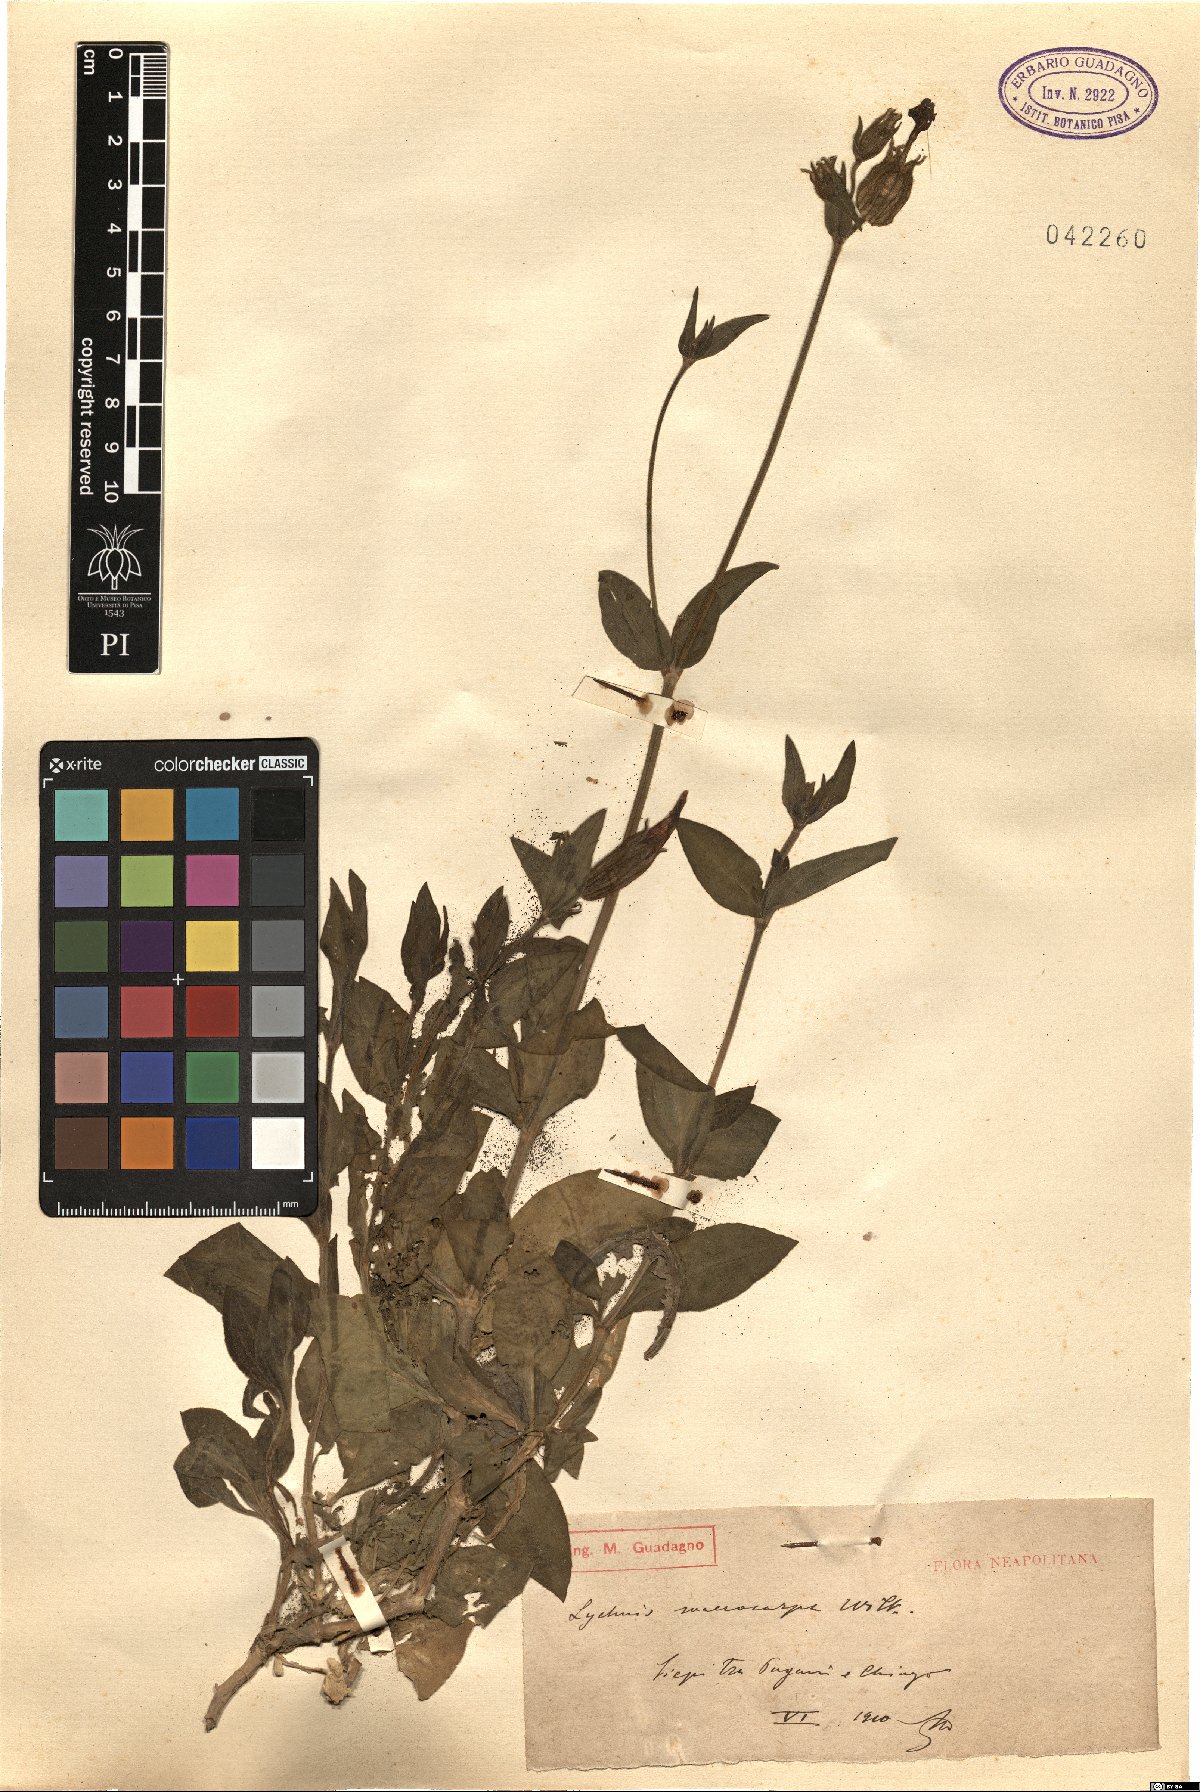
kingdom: Plantae
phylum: Tracheophyta
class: Magnoliopsida
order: Caryophyllales
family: Caryophyllaceae
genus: Silene
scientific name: Silene latifolia
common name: White campion
